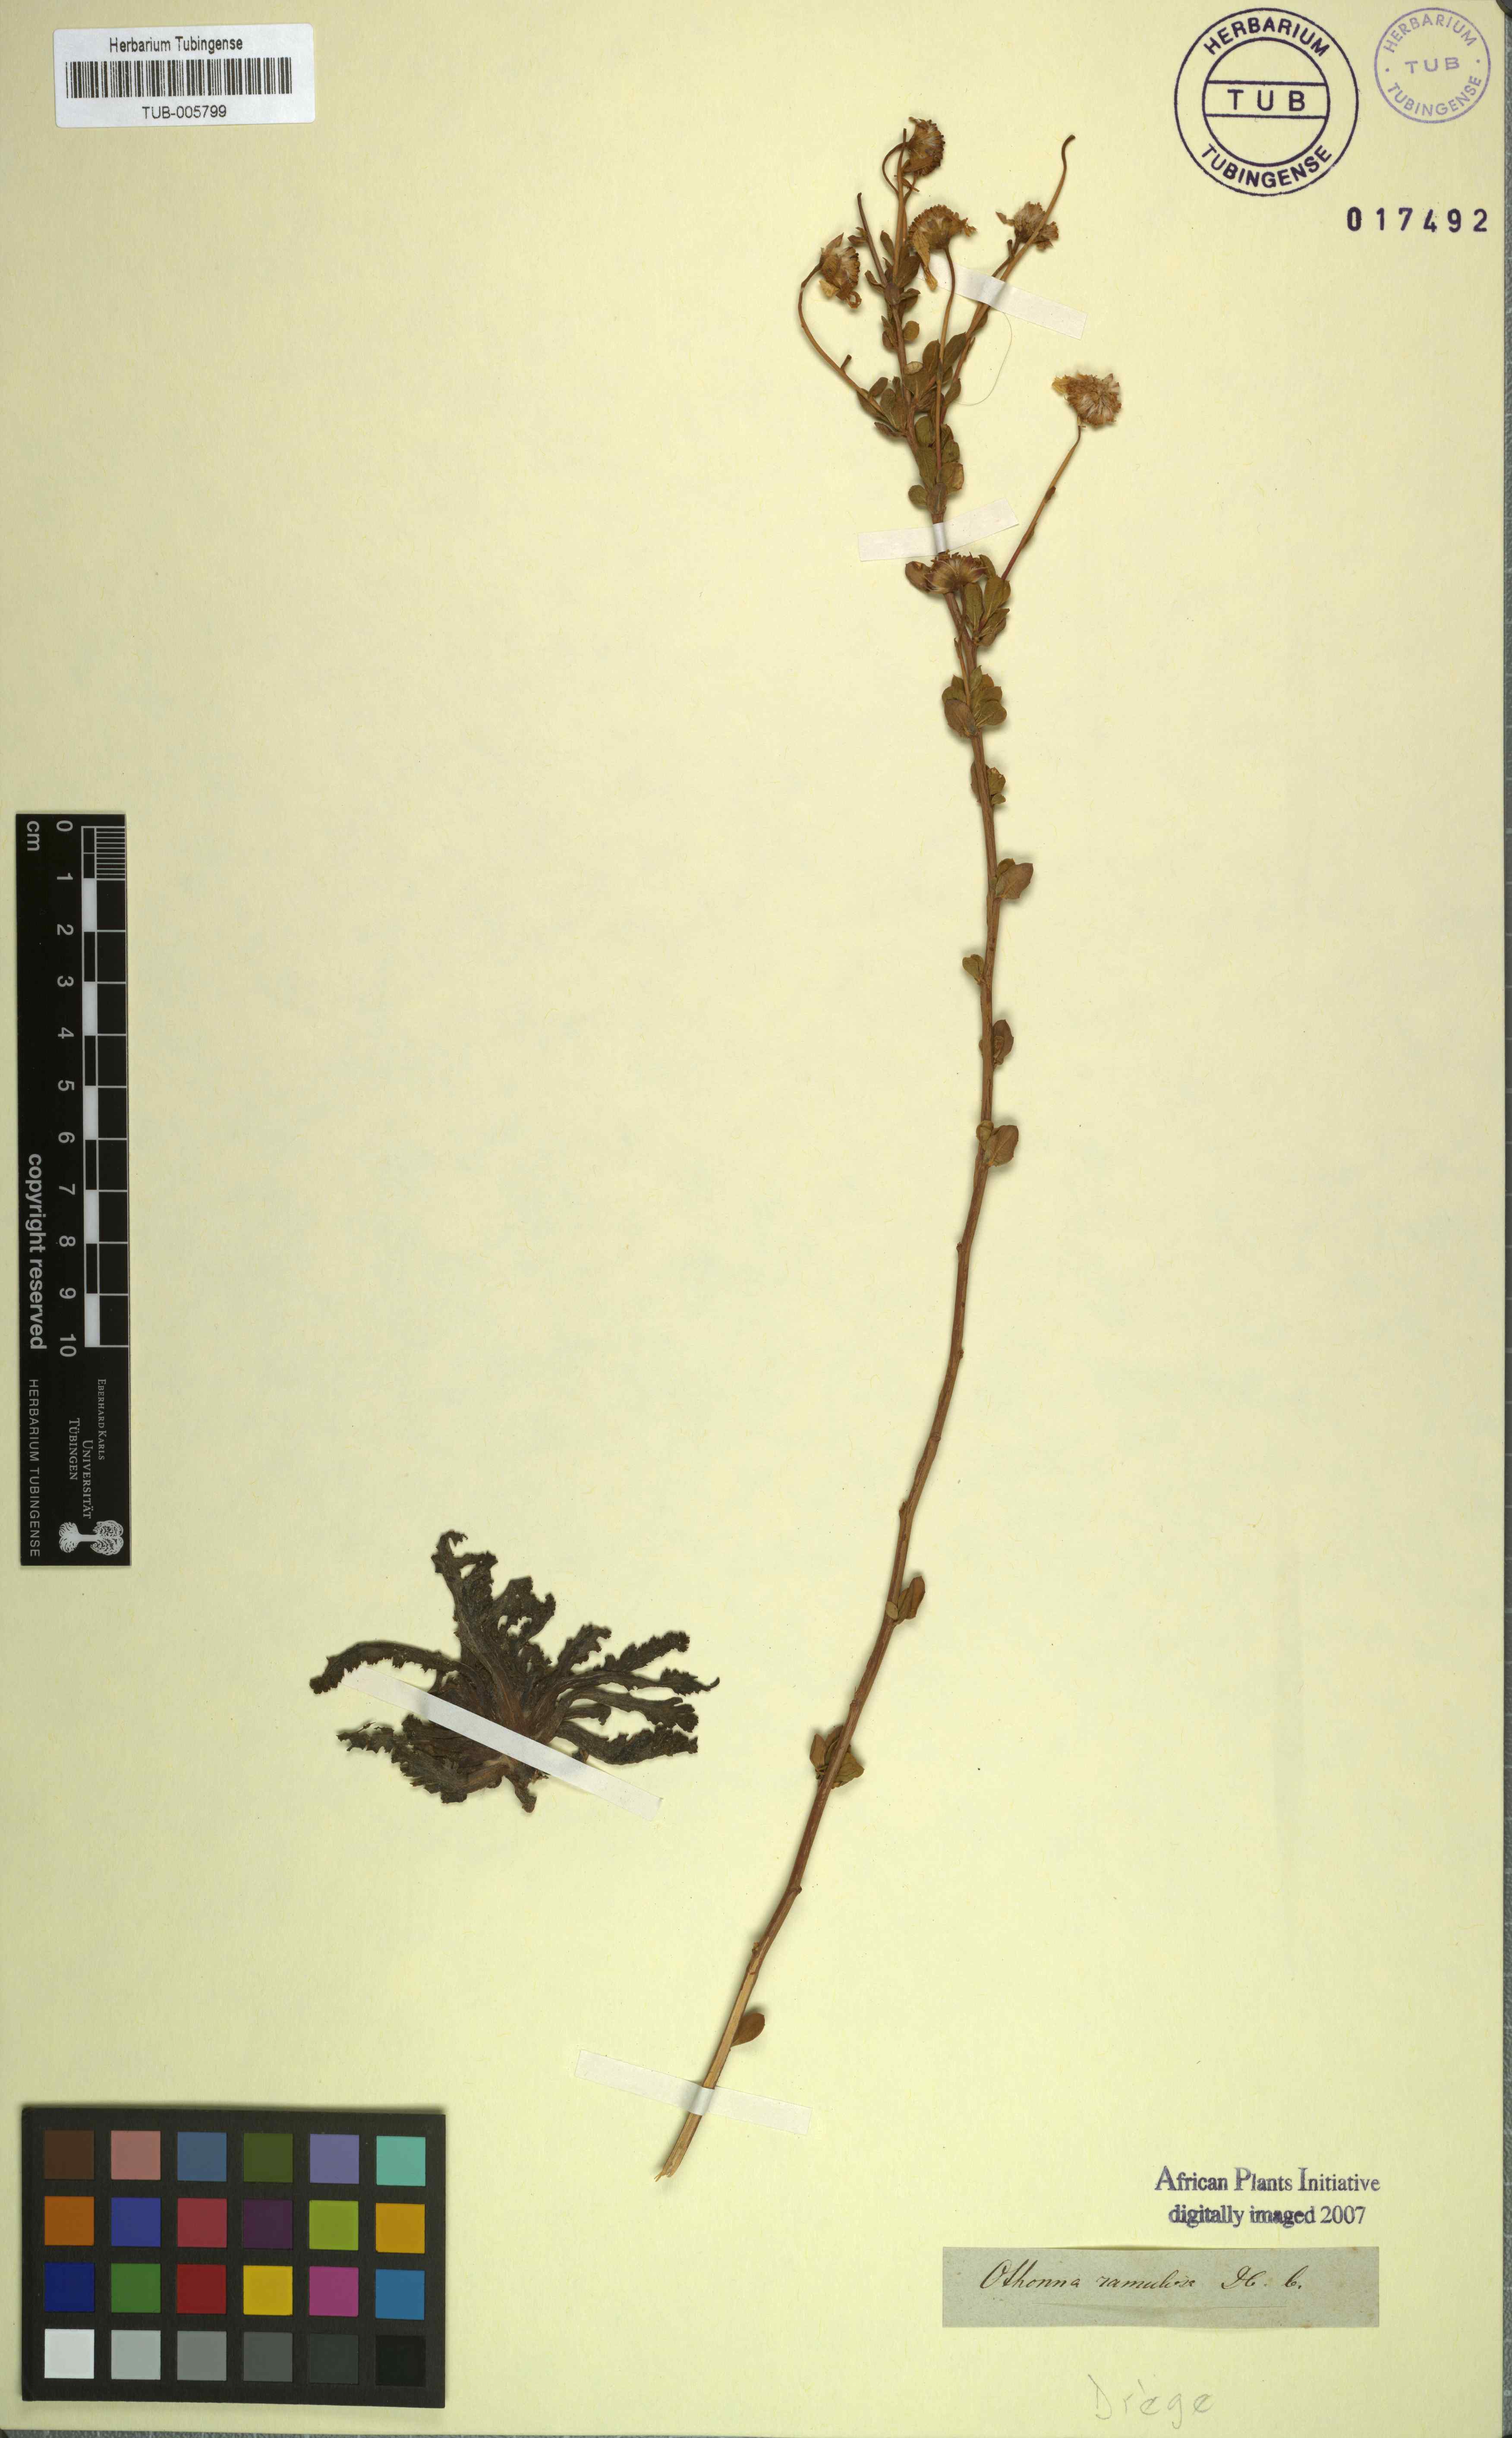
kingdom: Plantae
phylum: Tracheophyta
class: Magnoliopsida
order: Asterales
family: Asteraceae
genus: Othonna
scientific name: Othonna ramulosa
